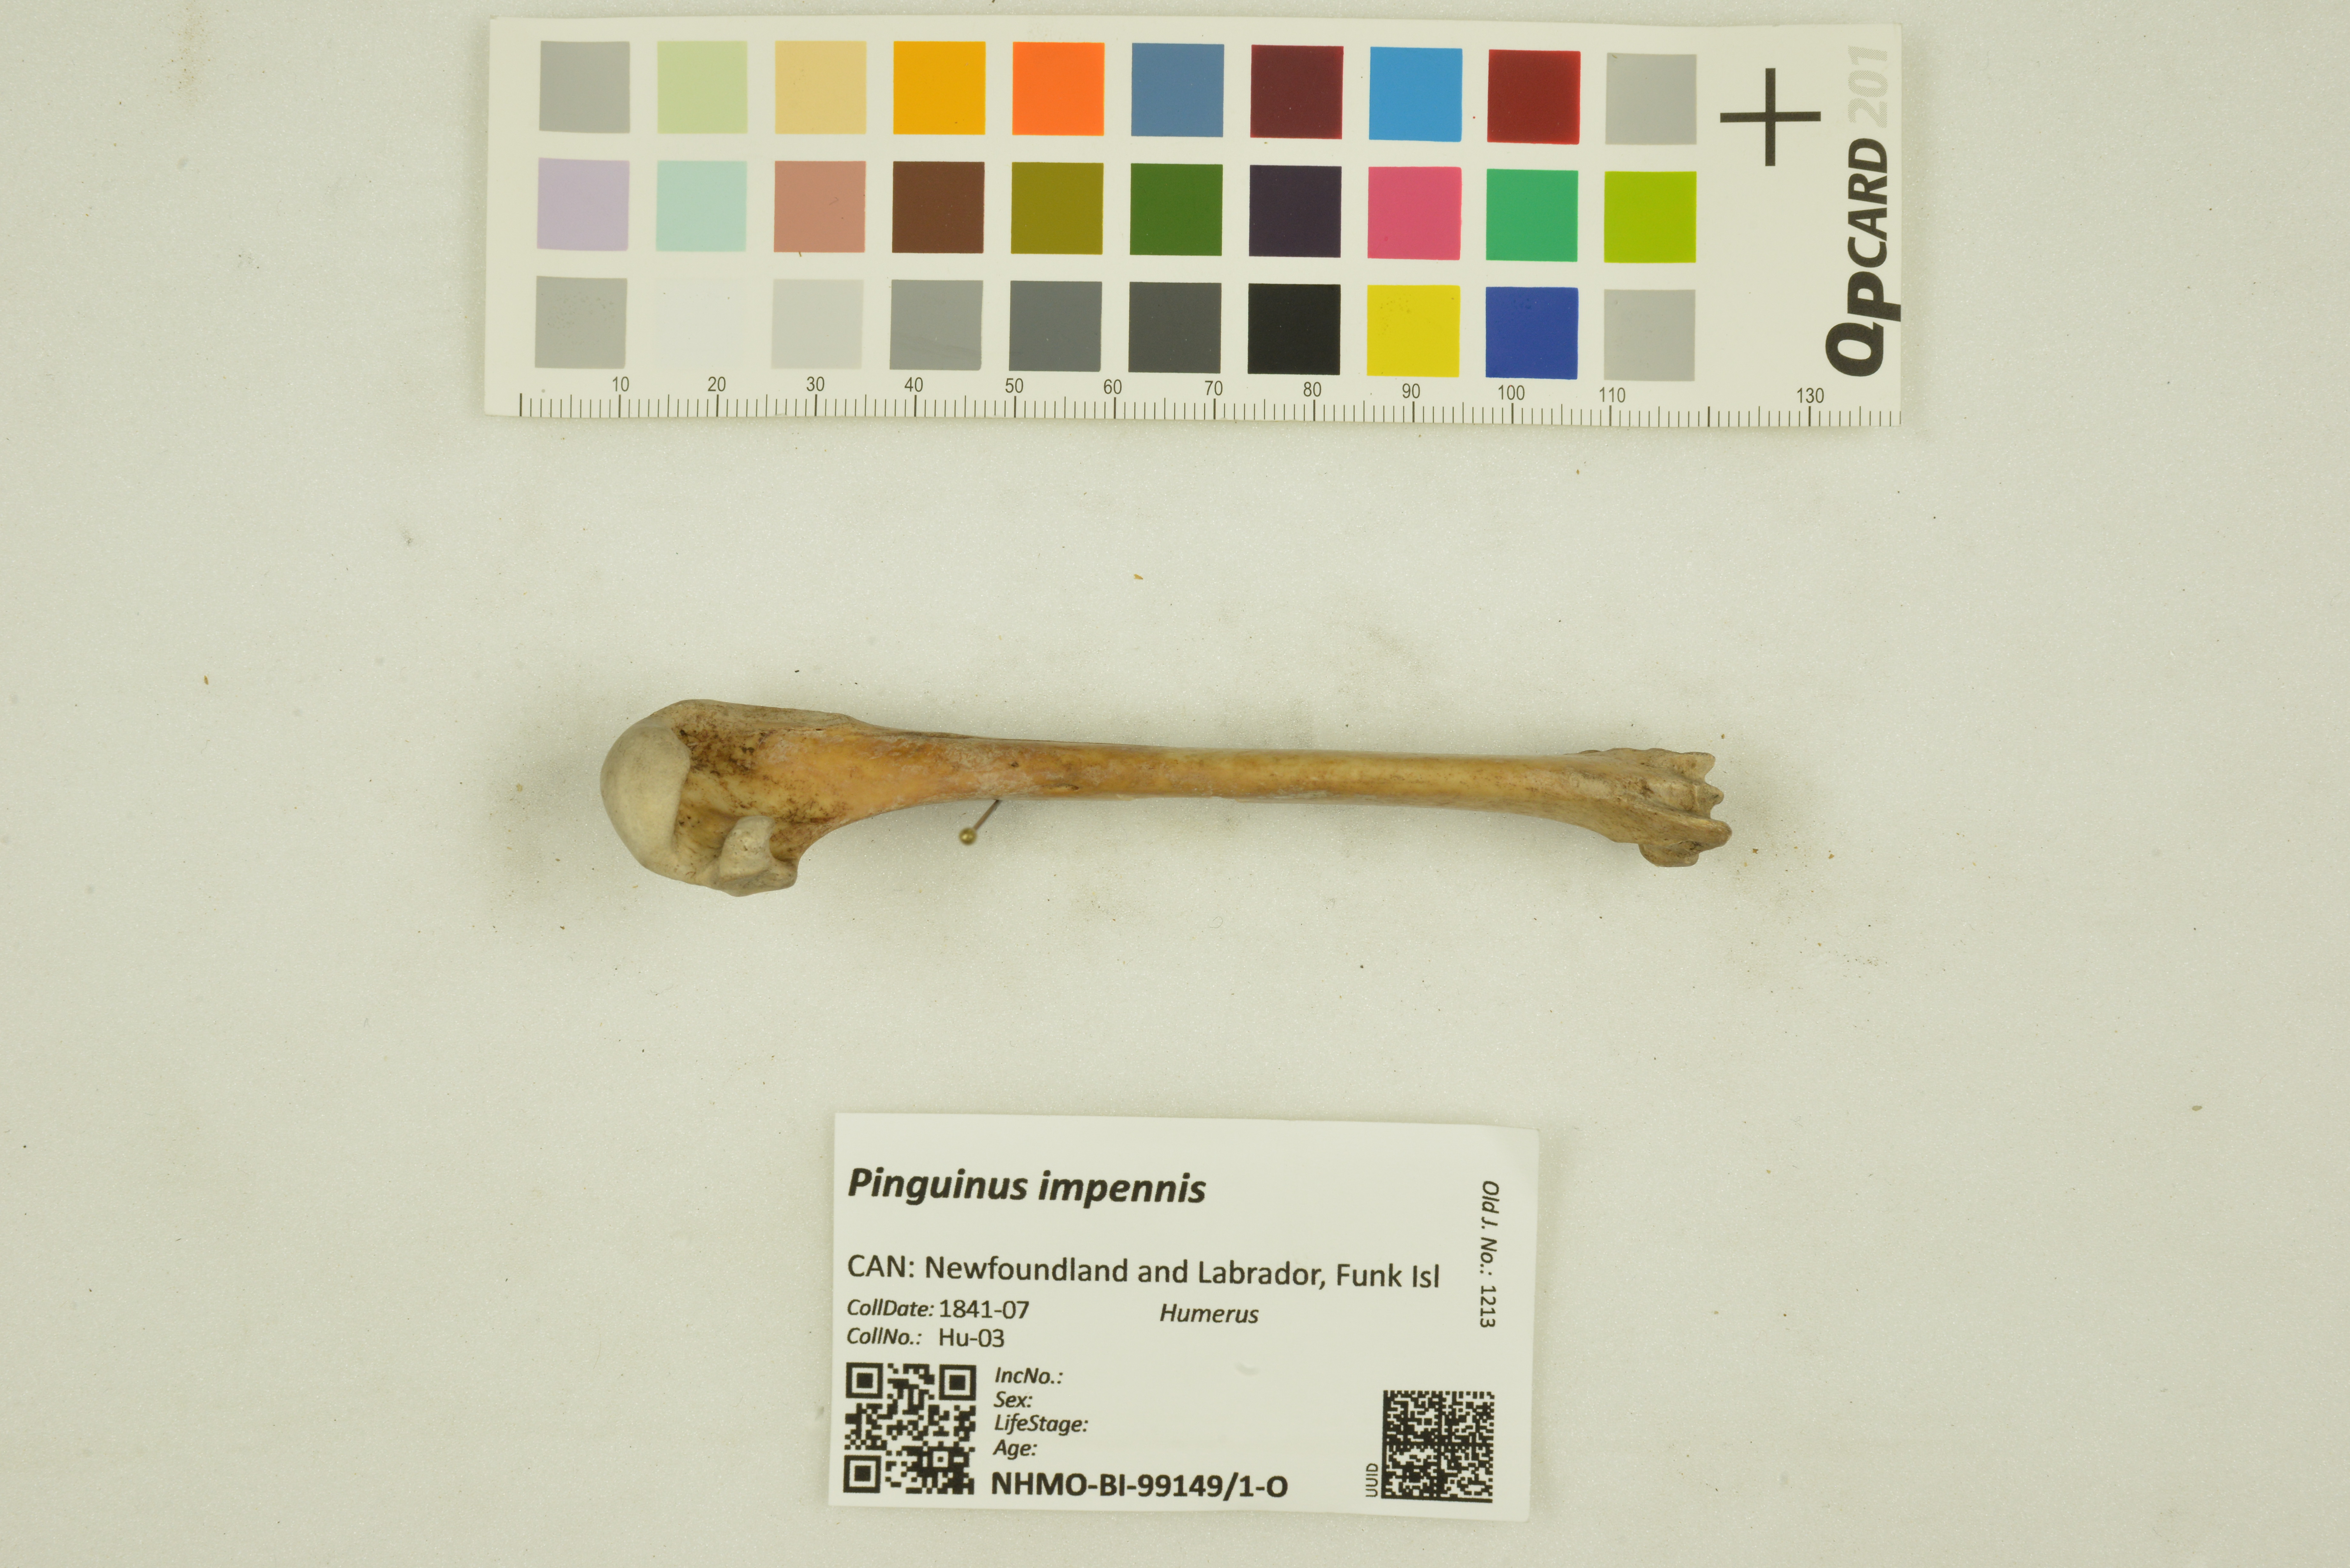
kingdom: Animalia
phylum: Chordata
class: Aves
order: Charadriiformes
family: Alcidae
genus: Pinguinus
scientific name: Pinguinus impennis
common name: Great auk
